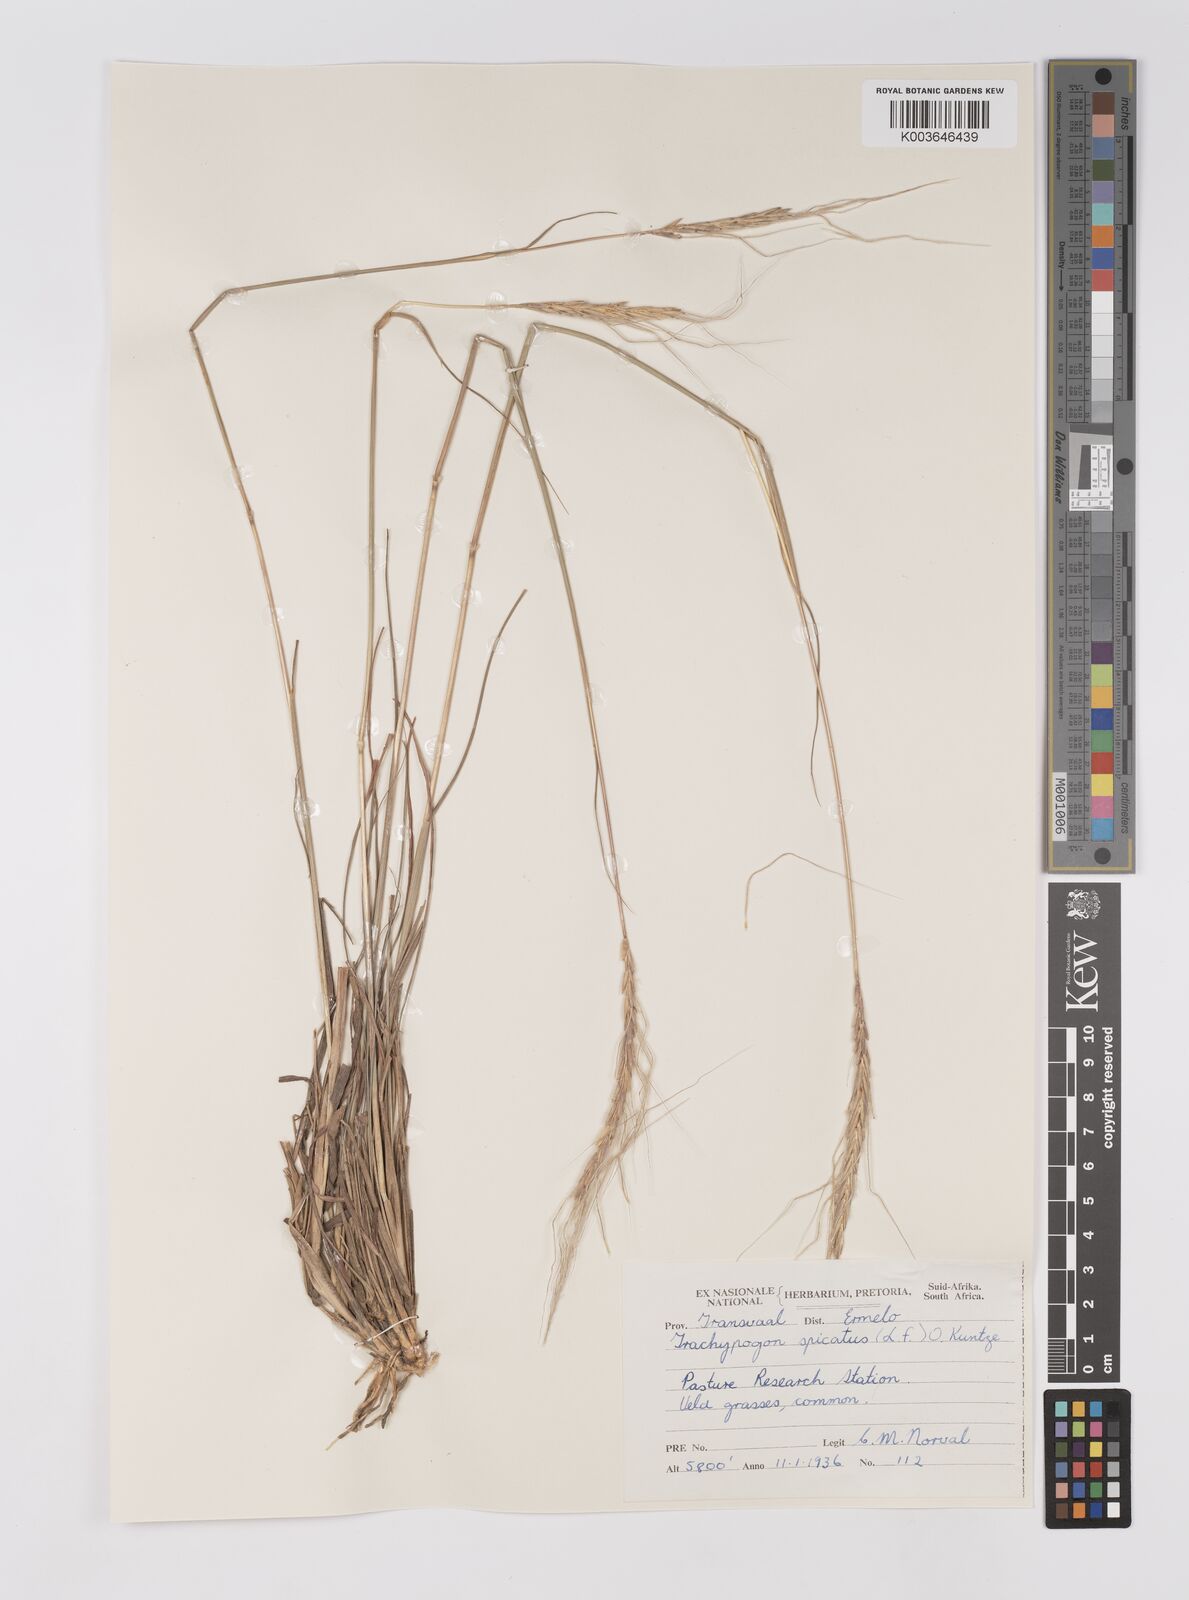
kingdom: Plantae
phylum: Tracheophyta
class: Liliopsida
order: Poales
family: Poaceae
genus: Trachypogon
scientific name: Trachypogon spicatus
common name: Crinkle-awn
